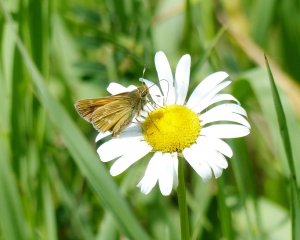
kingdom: Animalia
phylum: Arthropoda
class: Insecta
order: Lepidoptera
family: Hesperiidae
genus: Hesperia
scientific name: Hesperia sassacus
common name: Sassacus Skipper
